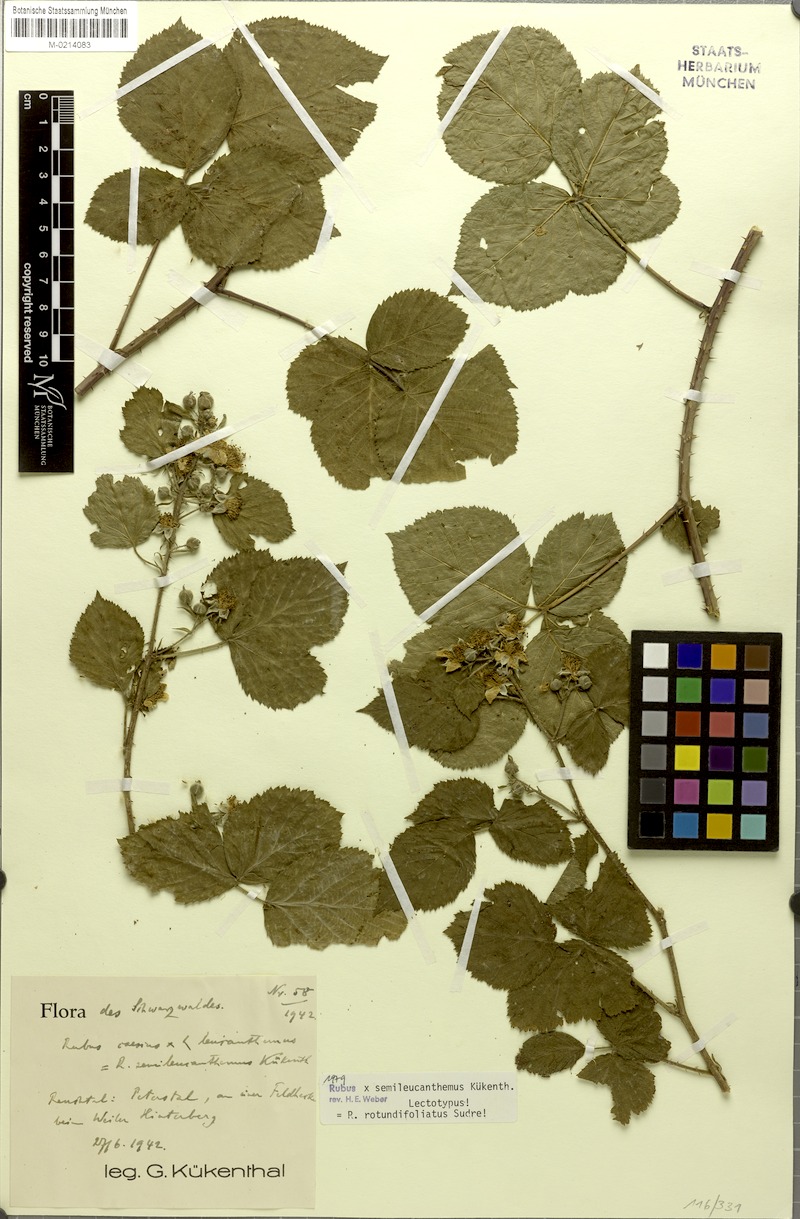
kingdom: Plantae
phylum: Tracheophyta
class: Magnoliopsida
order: Rosales
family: Rosaceae
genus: Rubus
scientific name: Rubus rotundifoliatus
